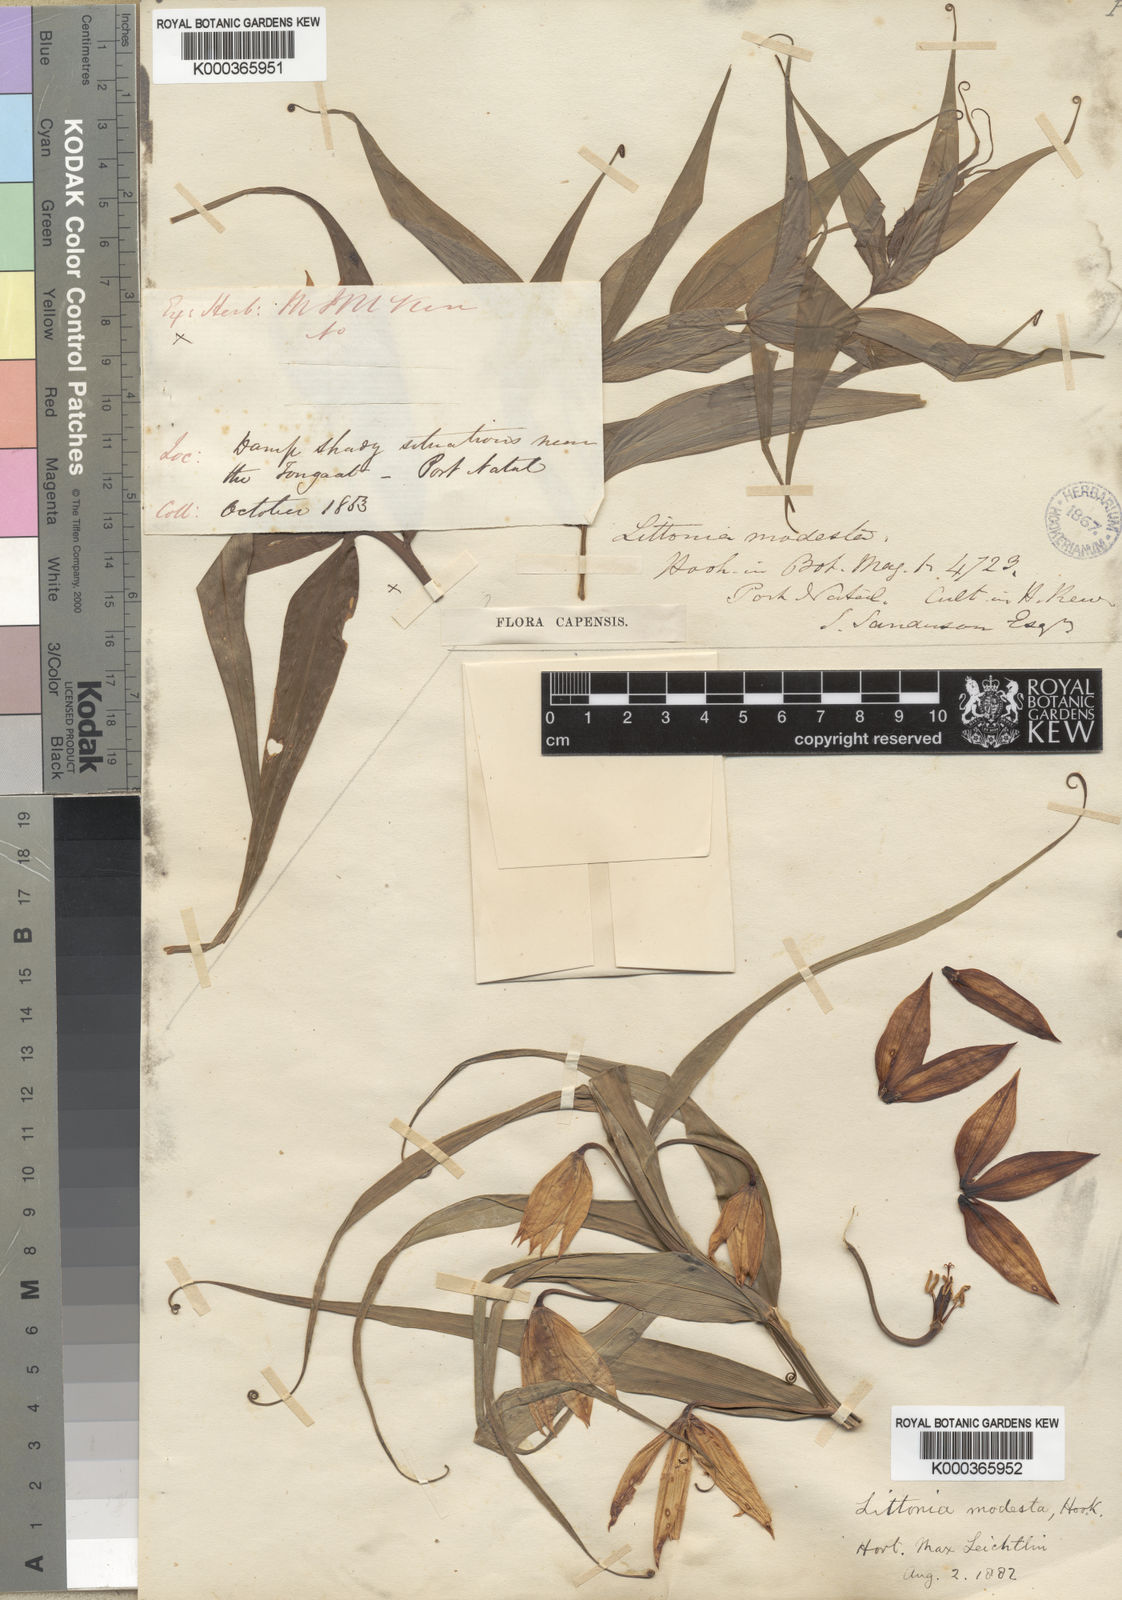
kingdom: Plantae
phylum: Tracheophyta
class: Liliopsida
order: Liliales
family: Colchicaceae
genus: Gloriosa
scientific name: Gloriosa modesta
